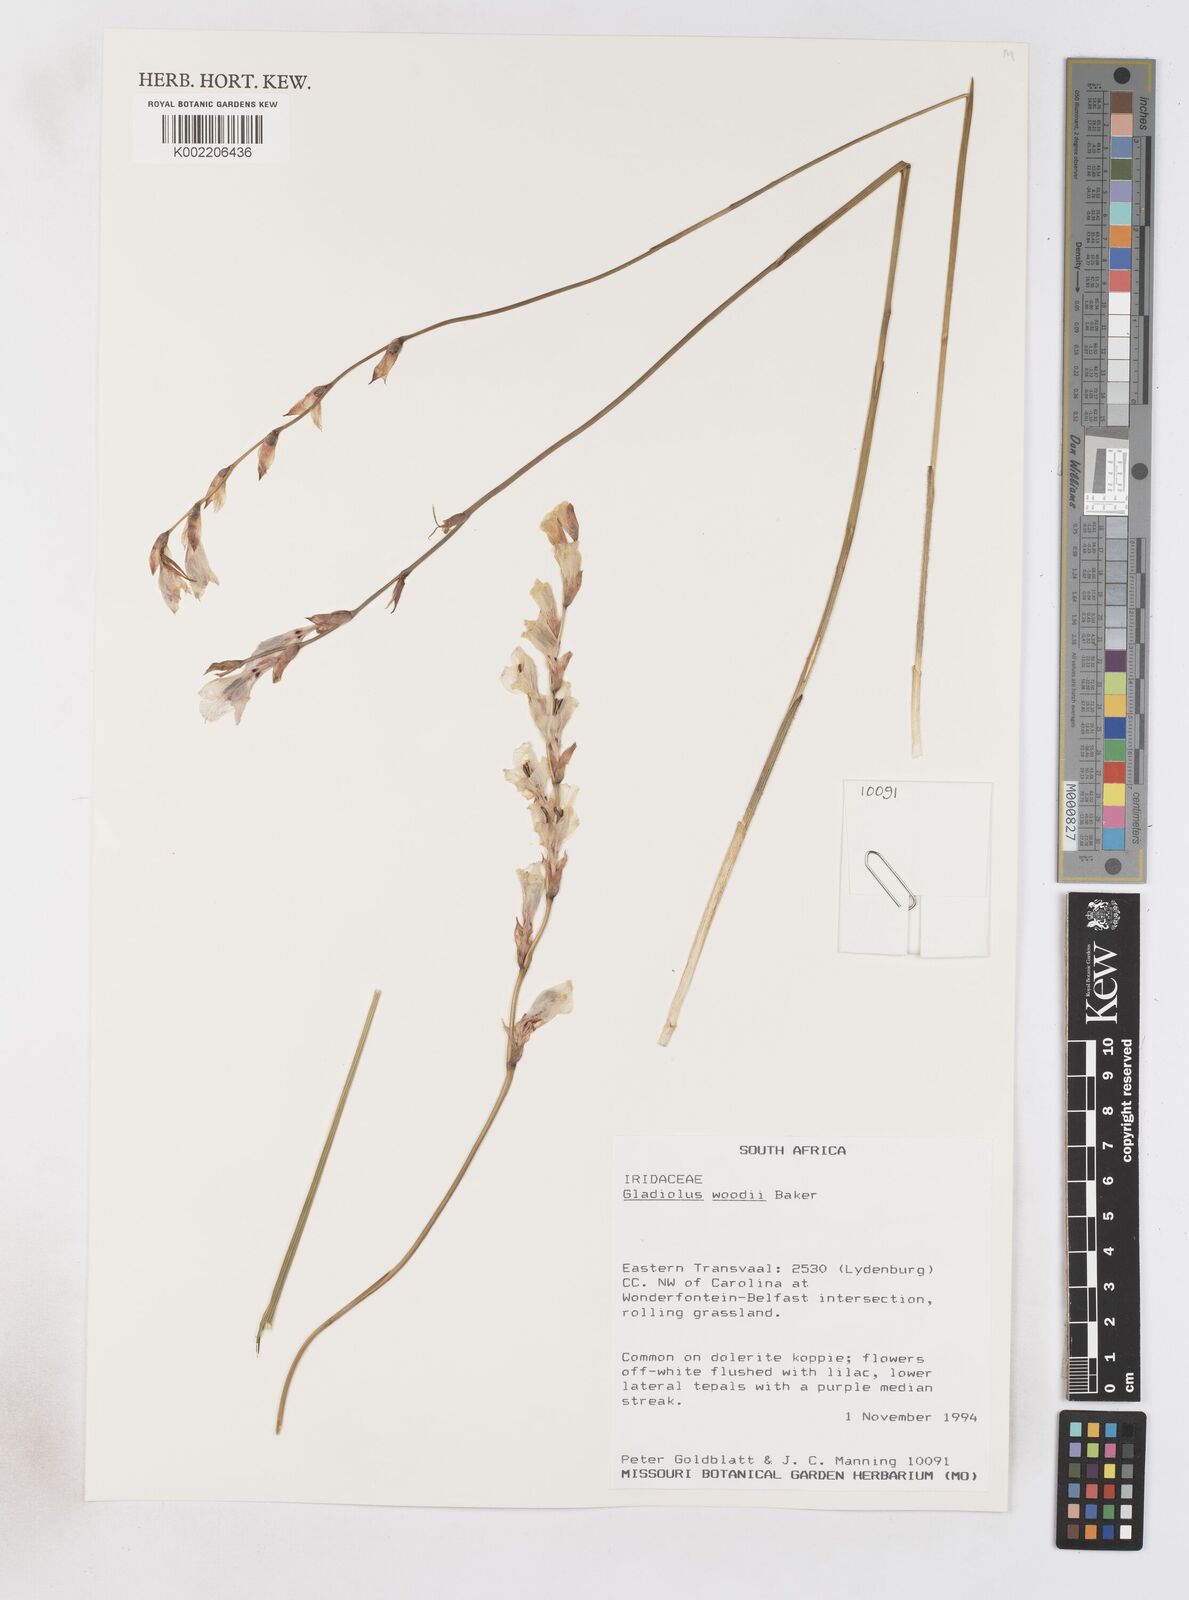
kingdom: Plantae
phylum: Tracheophyta
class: Liliopsida
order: Asparagales
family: Iridaceae
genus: Gladiolus
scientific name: Gladiolus woodii
